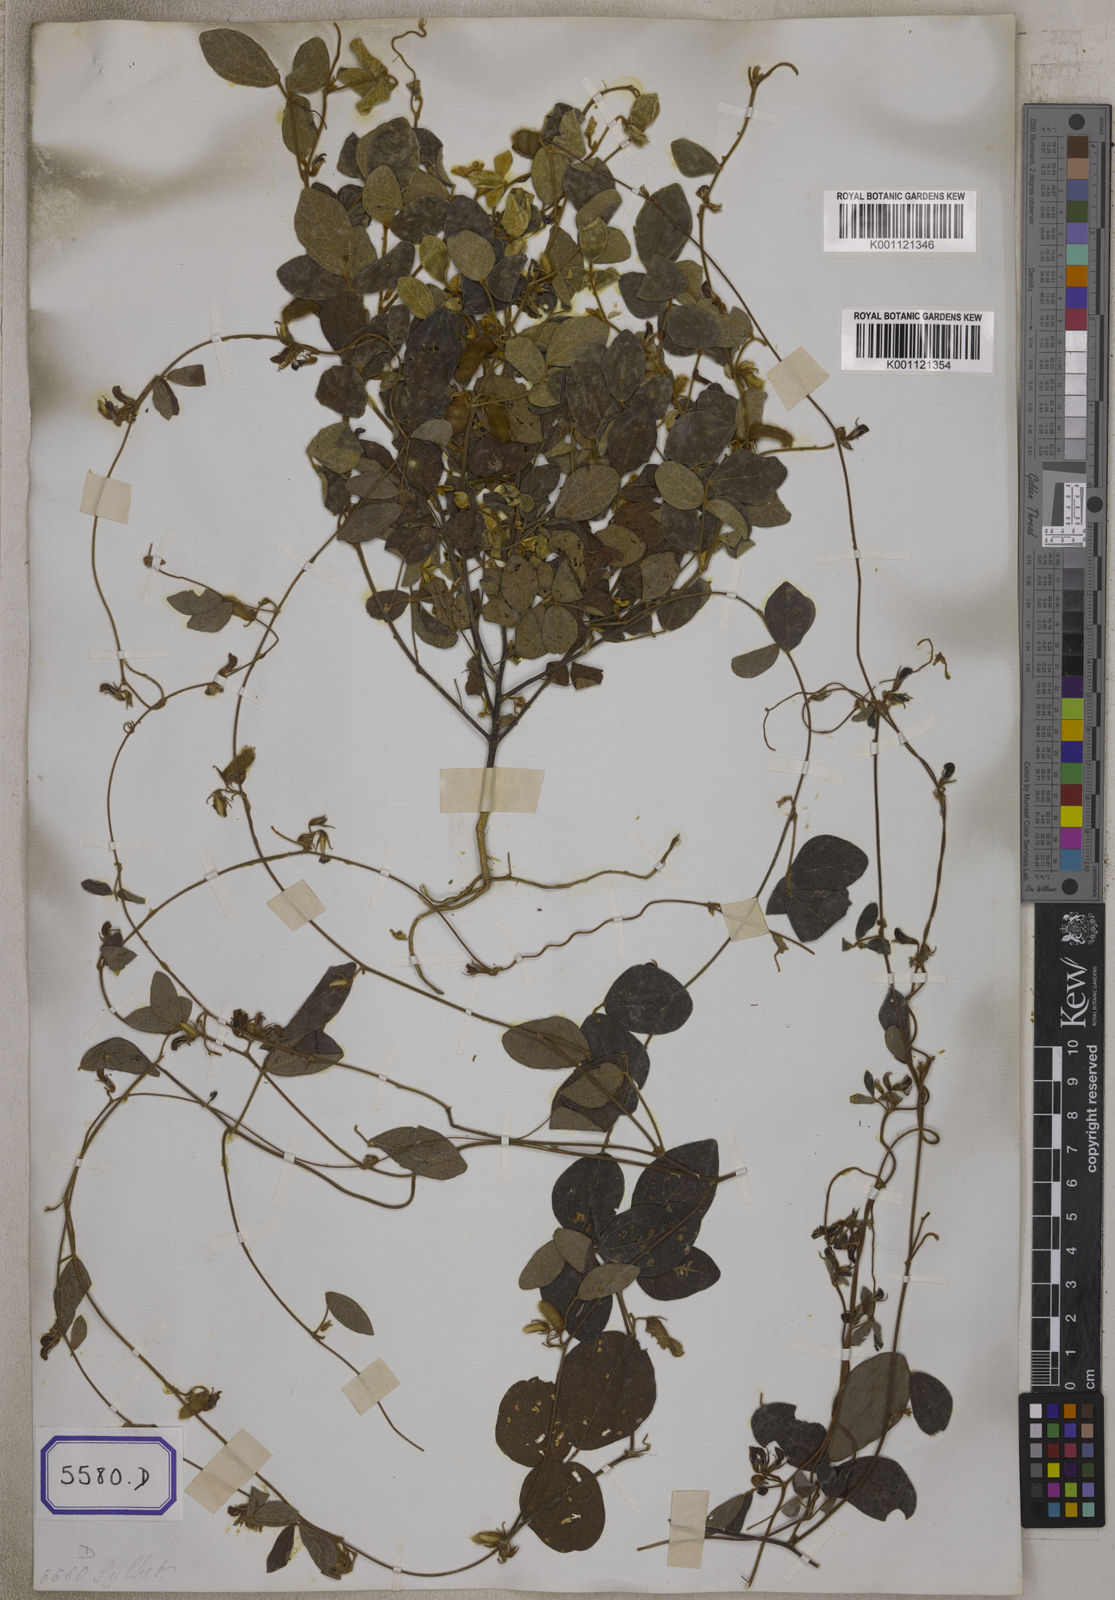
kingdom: Plantae
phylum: Tracheophyta
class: Magnoliopsida
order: Fabales
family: Fabaceae
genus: Cajanus
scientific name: Cajanus scarabaeoides
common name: Showy pigeonpea
